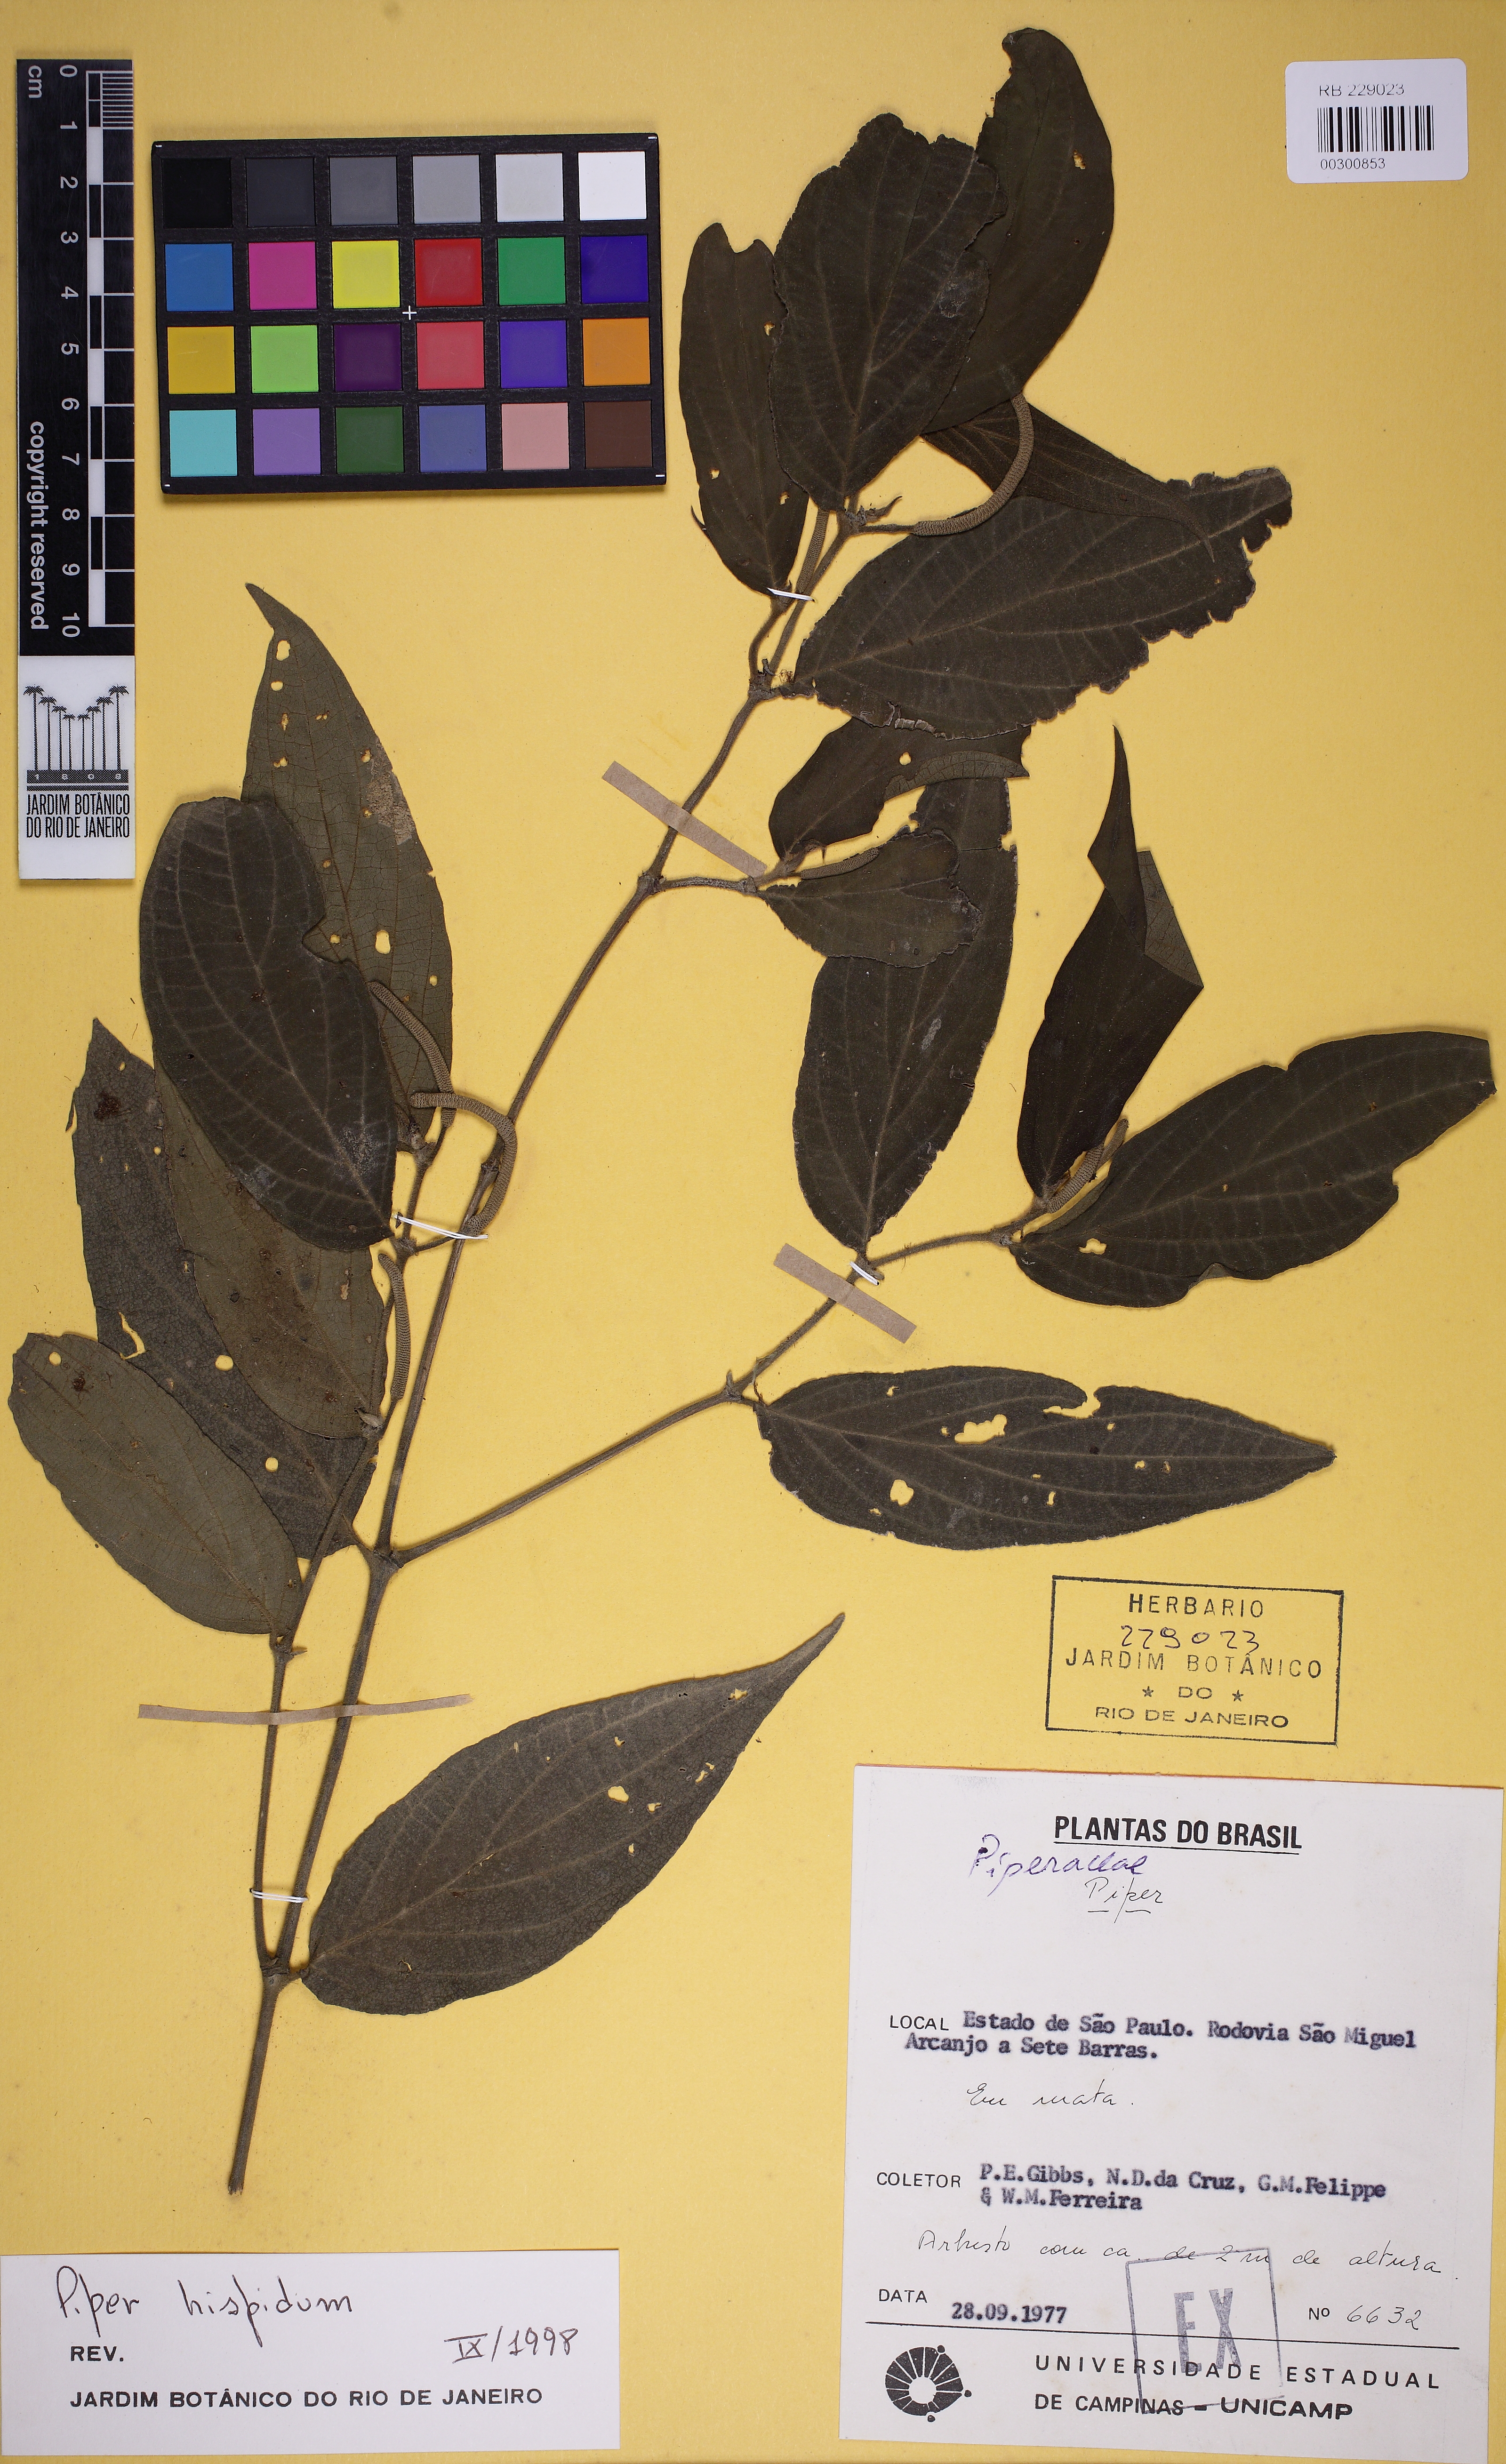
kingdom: Plantae
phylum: Tracheophyta
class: Magnoliopsida
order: Piperales
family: Piperaceae
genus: Piper
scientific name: Piper hispidum
